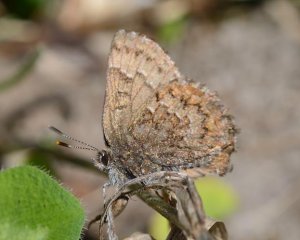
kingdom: Animalia
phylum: Arthropoda
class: Insecta
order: Lepidoptera
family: Lycaenidae
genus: Incisalia
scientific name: Incisalia niphon
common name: Eastern Pine Elfin
